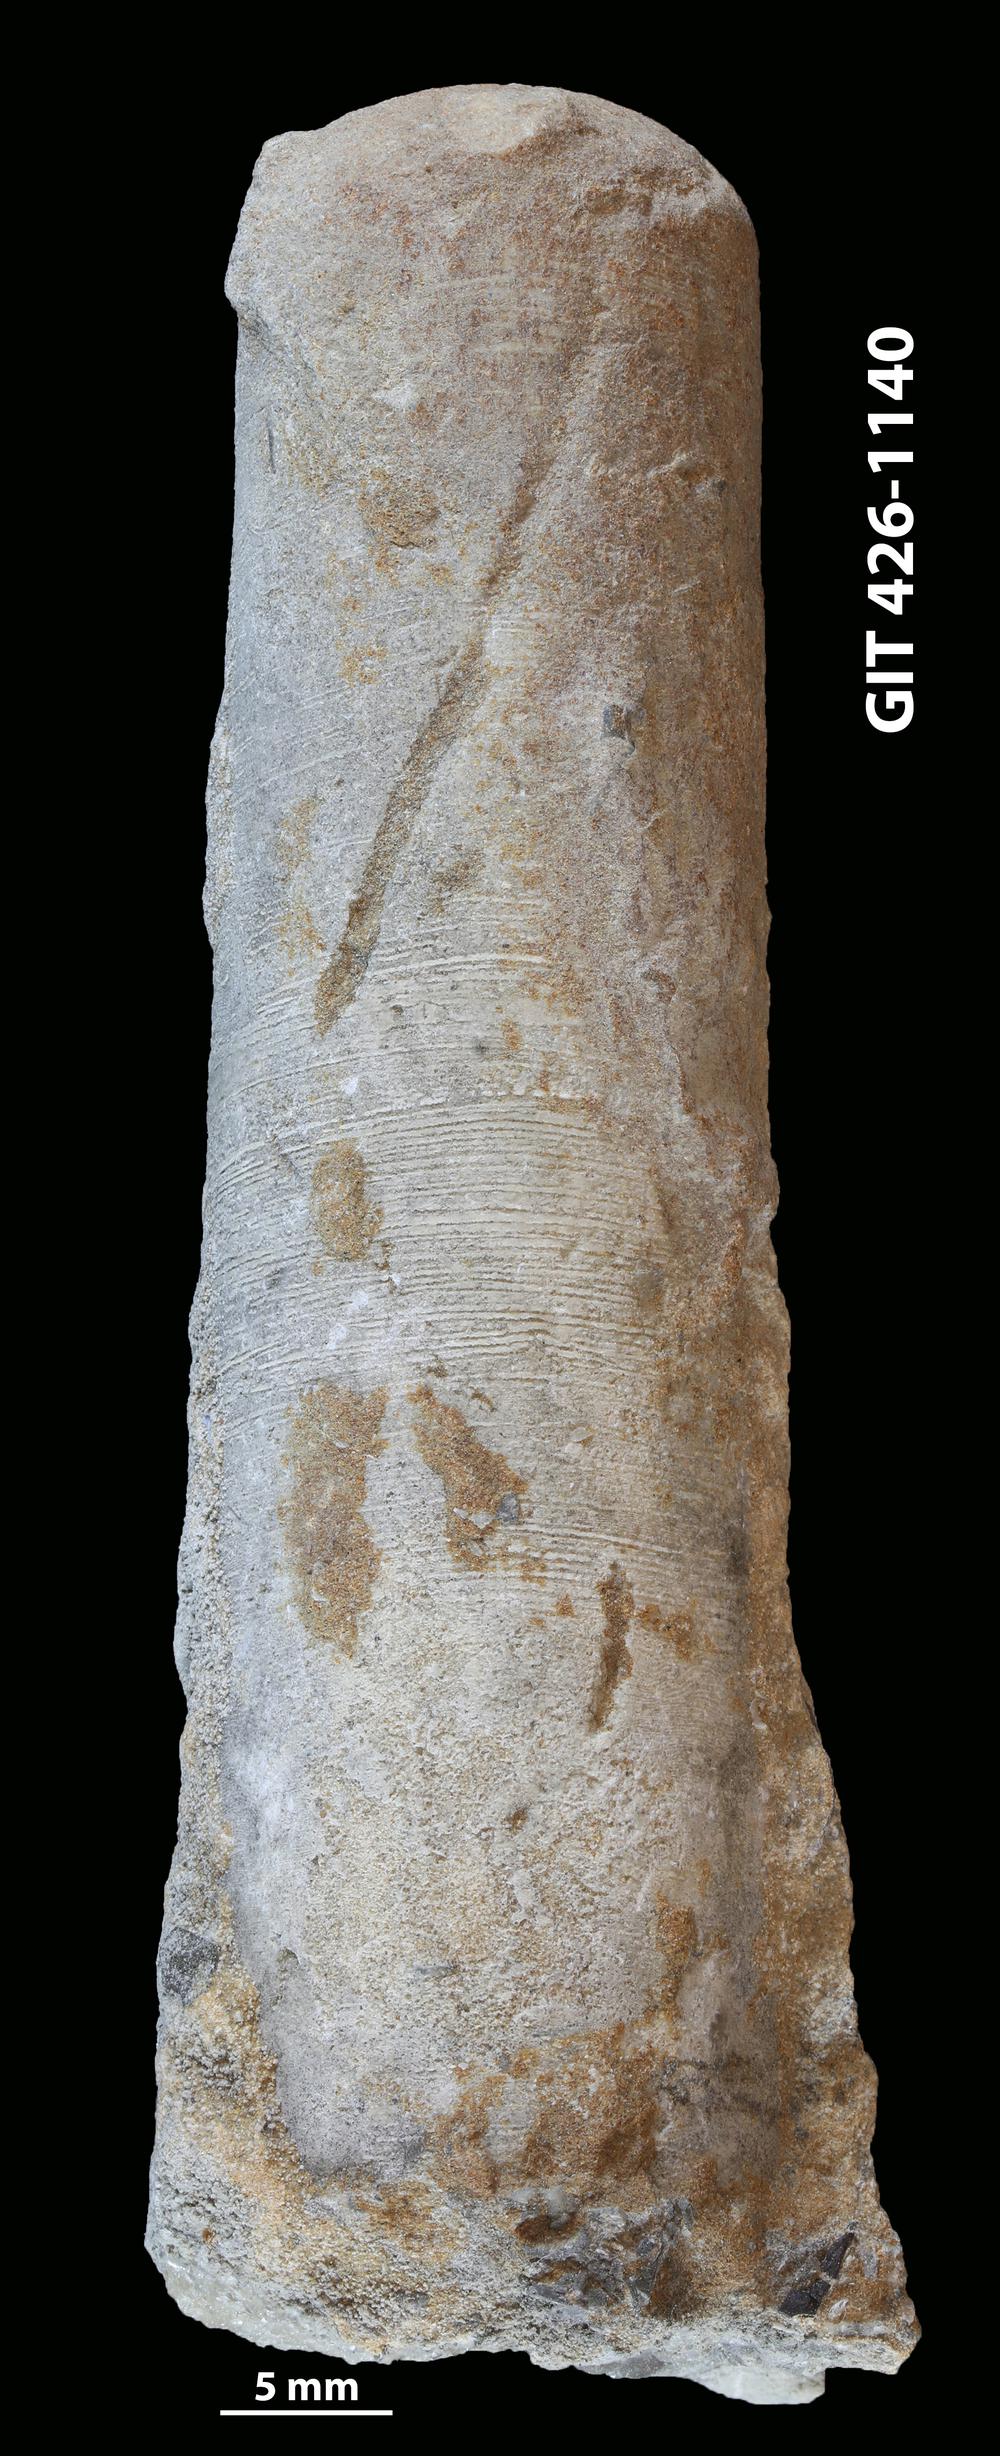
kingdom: Animalia
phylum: Mollusca
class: Cephalopoda
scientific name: Cephalopoda
